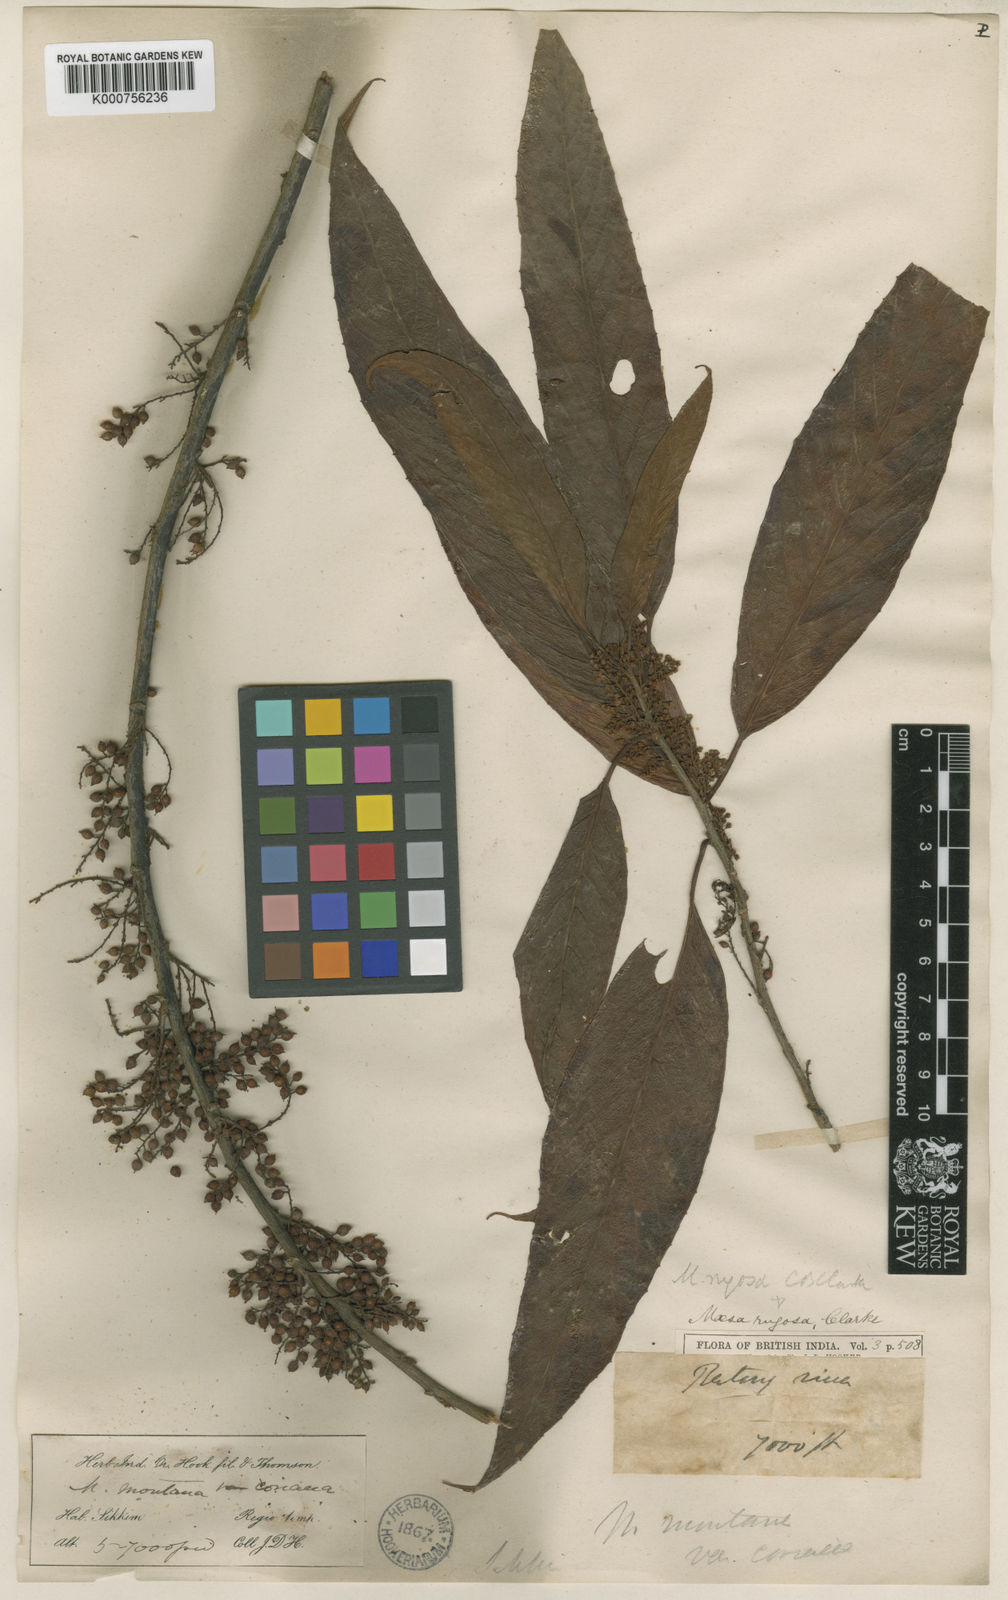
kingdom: Plantae
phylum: Tracheophyta
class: Magnoliopsida
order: Ericales
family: Primulaceae
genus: Maesa
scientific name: Maesa rugosa
